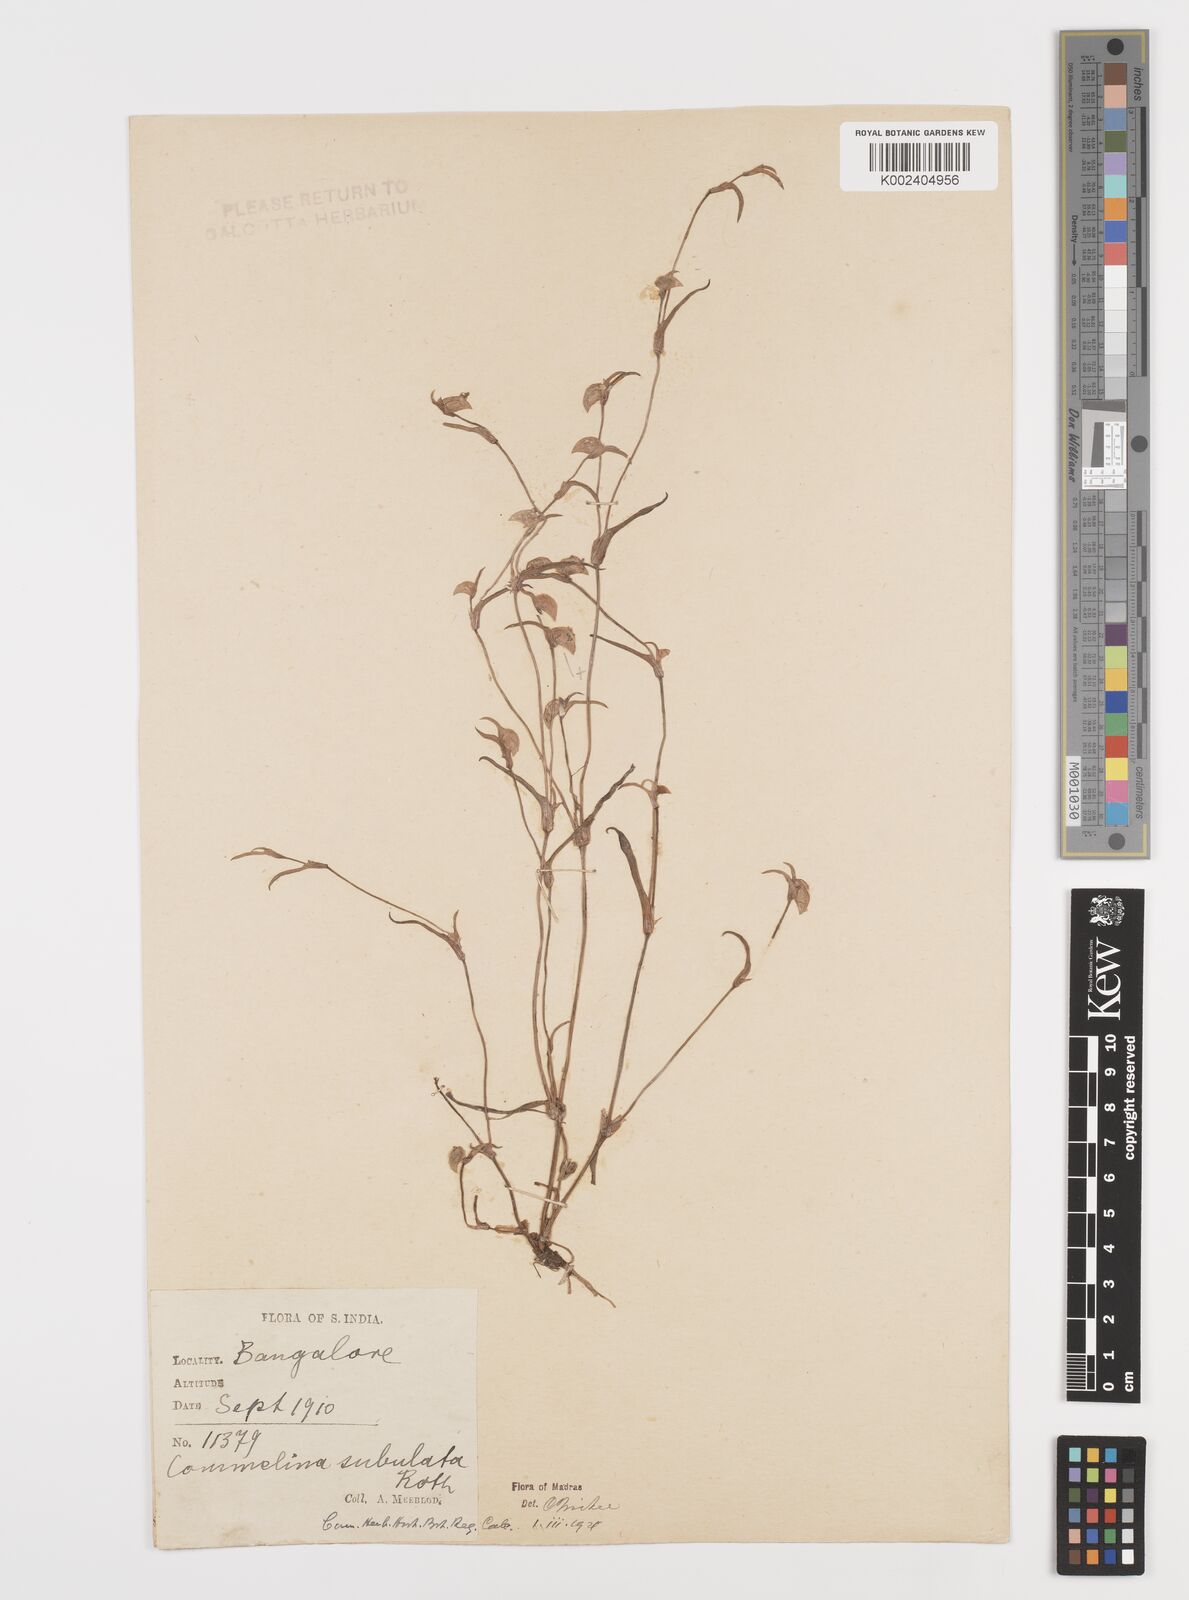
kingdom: Plantae
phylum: Tracheophyta
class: Liliopsida
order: Commelinales
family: Commelinaceae
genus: Commelina
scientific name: Commelina subulata
